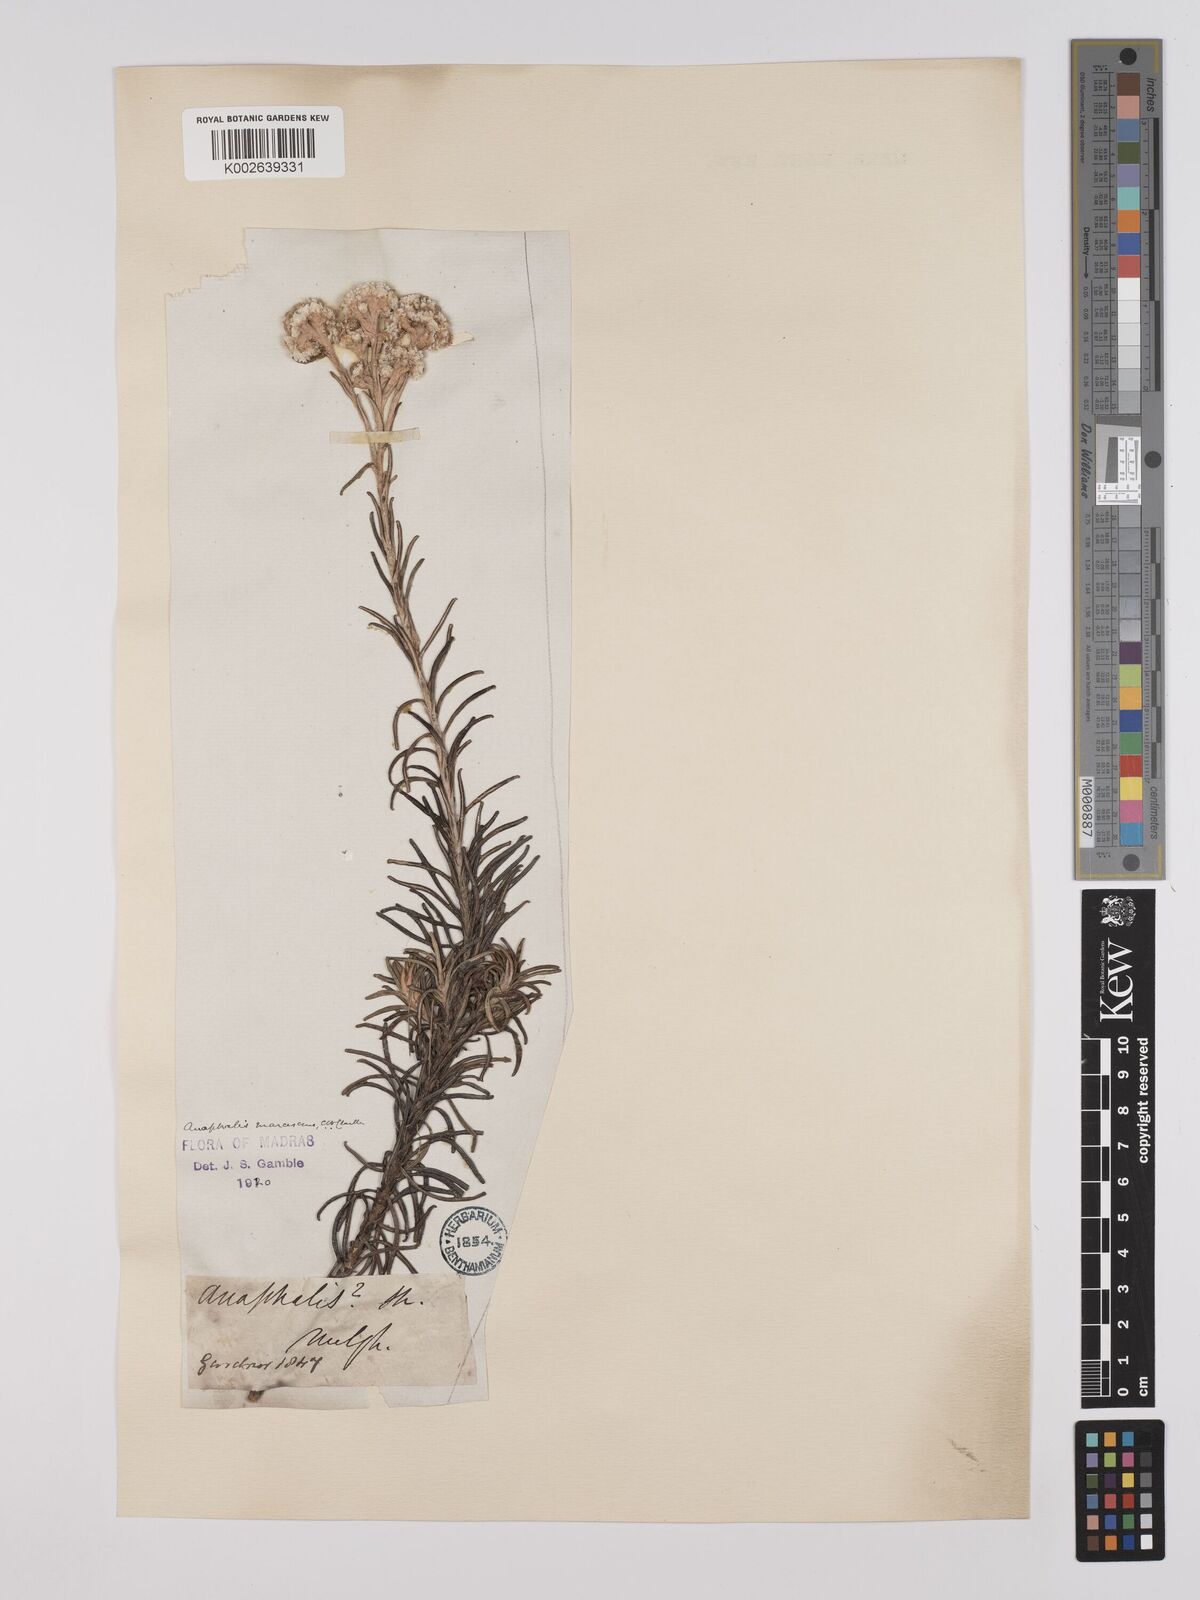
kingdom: Plantae
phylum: Tracheophyta
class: Magnoliopsida
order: Asterales
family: Asteraceae
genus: Anaphalis
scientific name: Anaphalis marcescens
